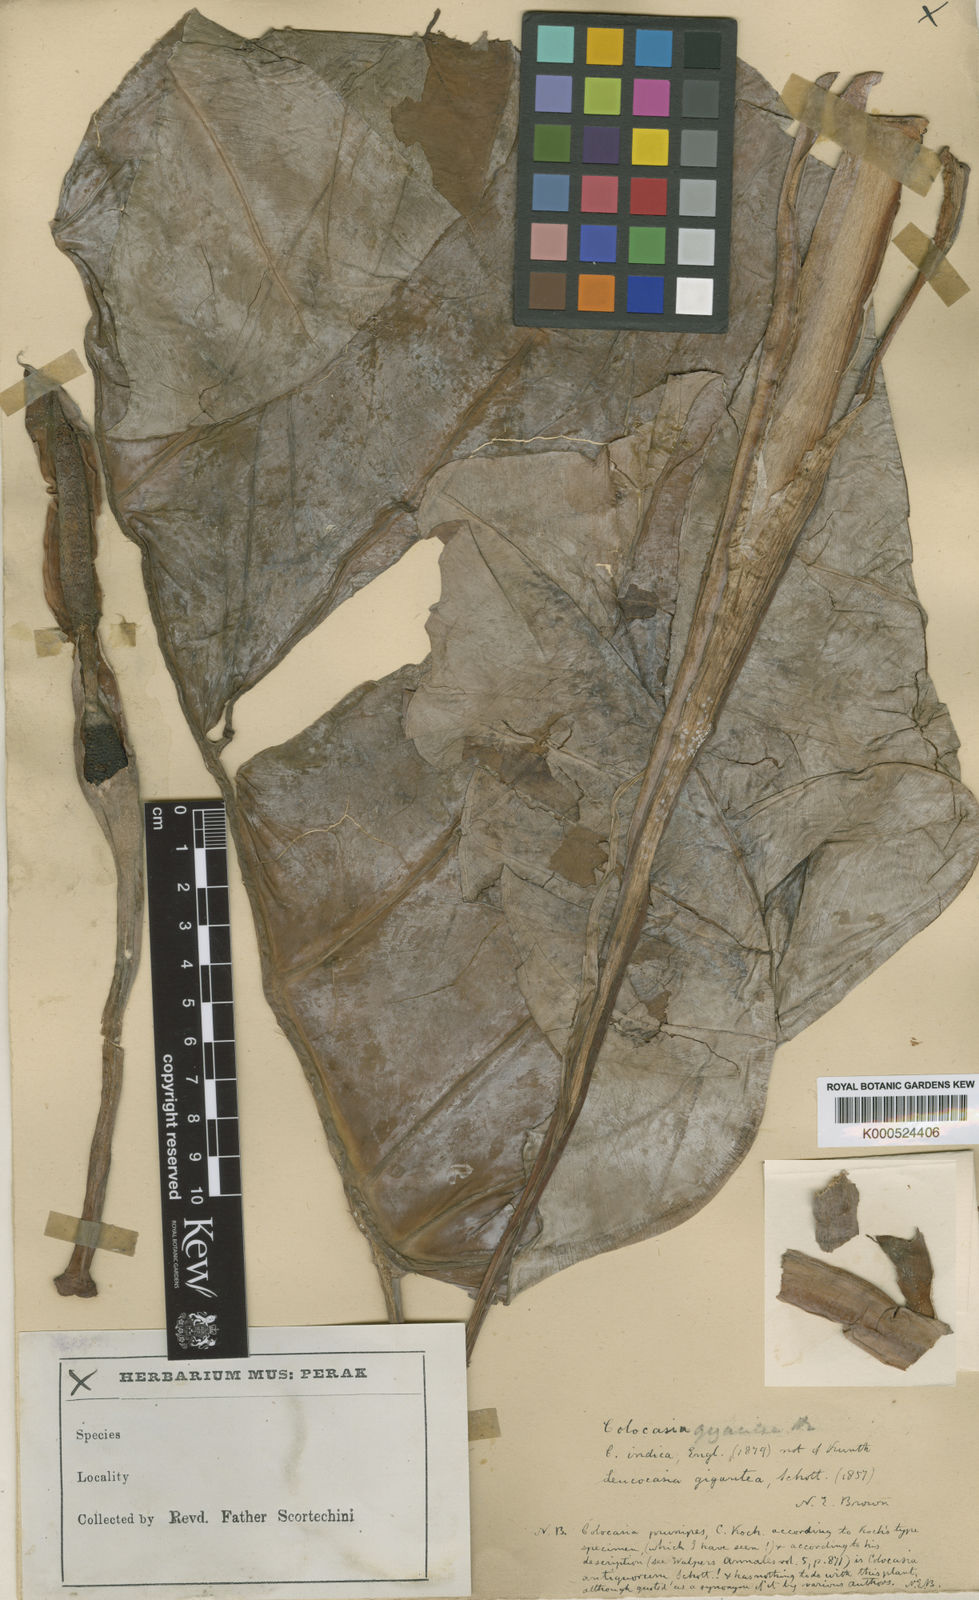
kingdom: Plantae
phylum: Tracheophyta
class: Liliopsida
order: Alismatales
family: Araceae
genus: Leucocasia
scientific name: Leucocasia gigantea
